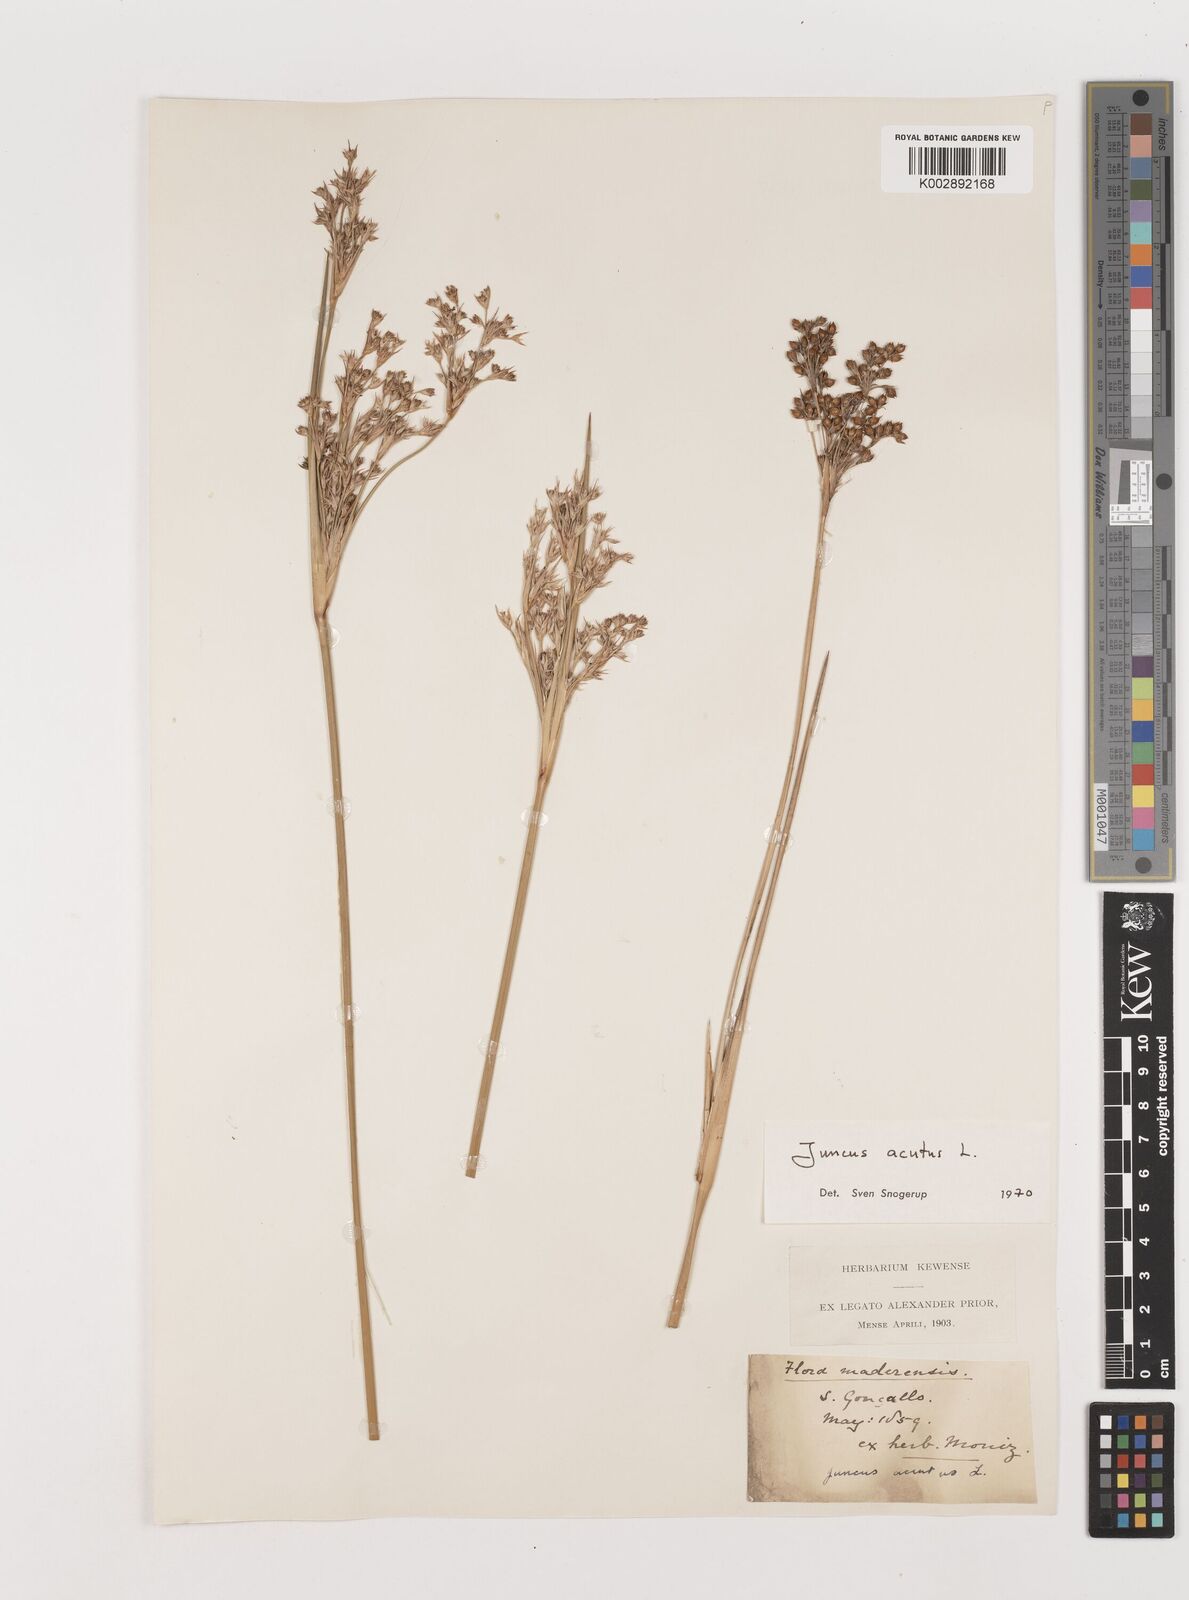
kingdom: Plantae
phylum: Tracheophyta
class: Liliopsida
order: Poales
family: Juncaceae
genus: Juncus
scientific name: Juncus acutus
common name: Sharp rush
